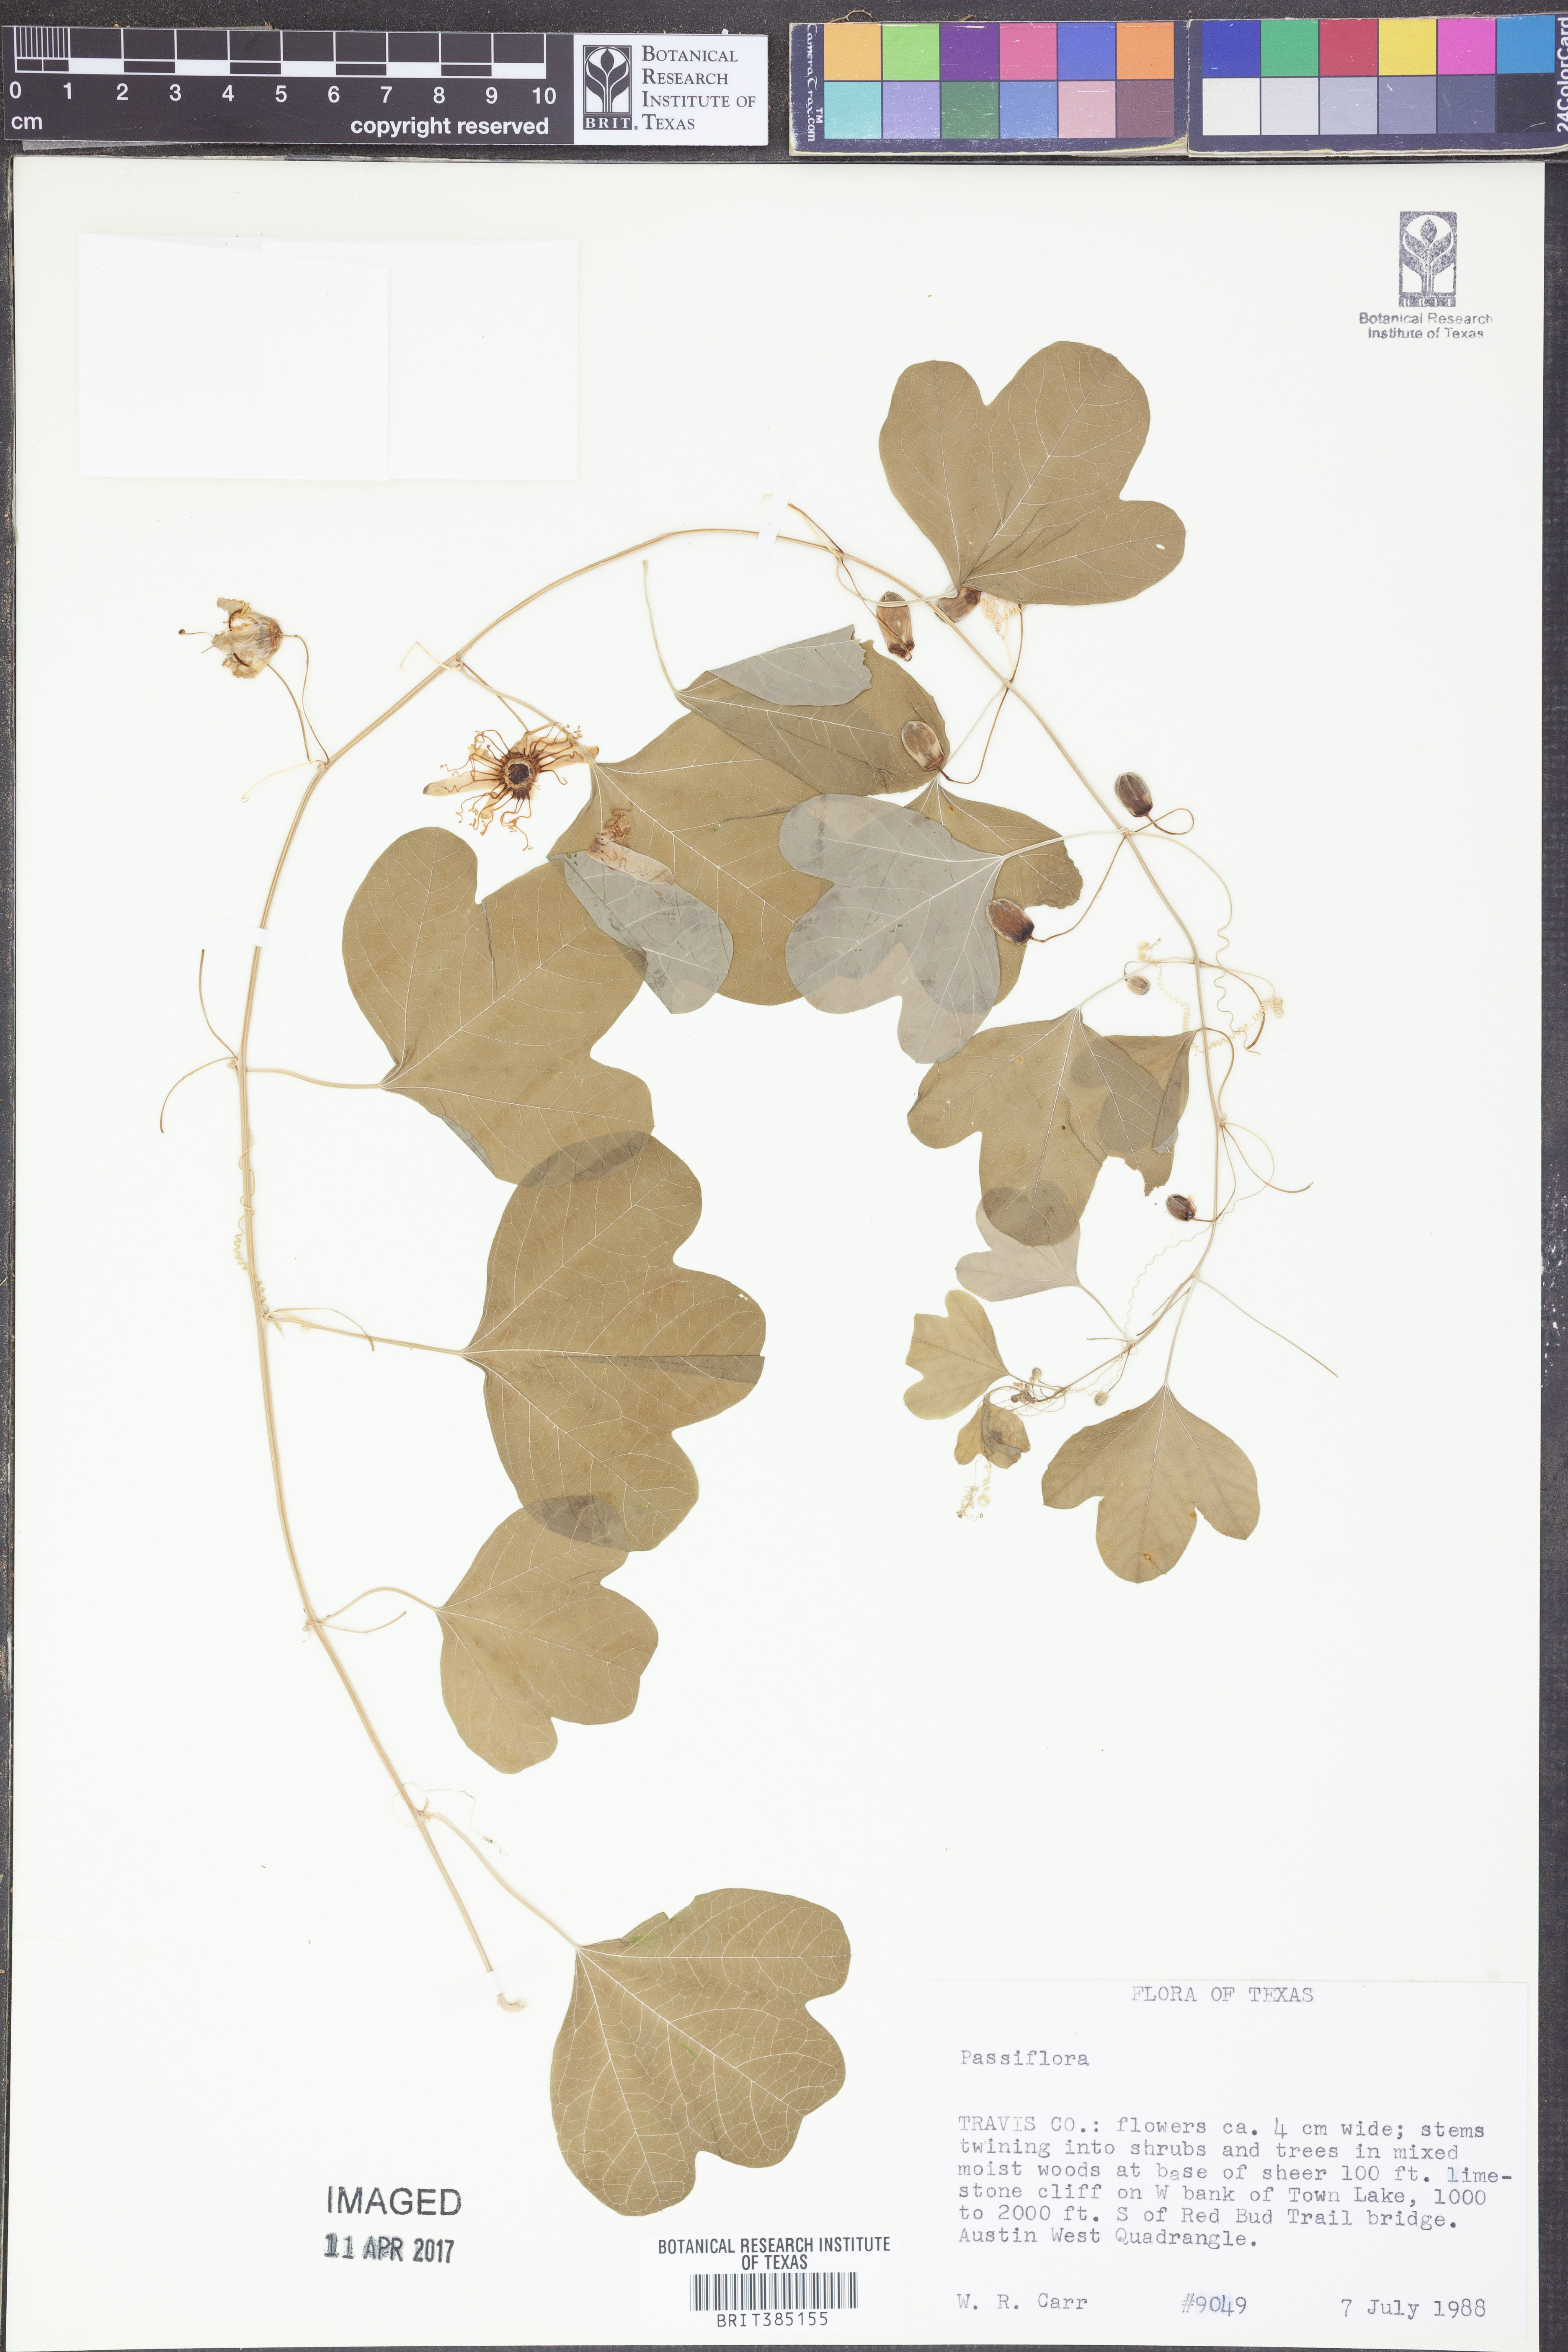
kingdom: Plantae
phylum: Tracheophyta
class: Magnoliopsida
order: Malpighiales
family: Passifloraceae
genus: Passiflora
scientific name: Passiflora
